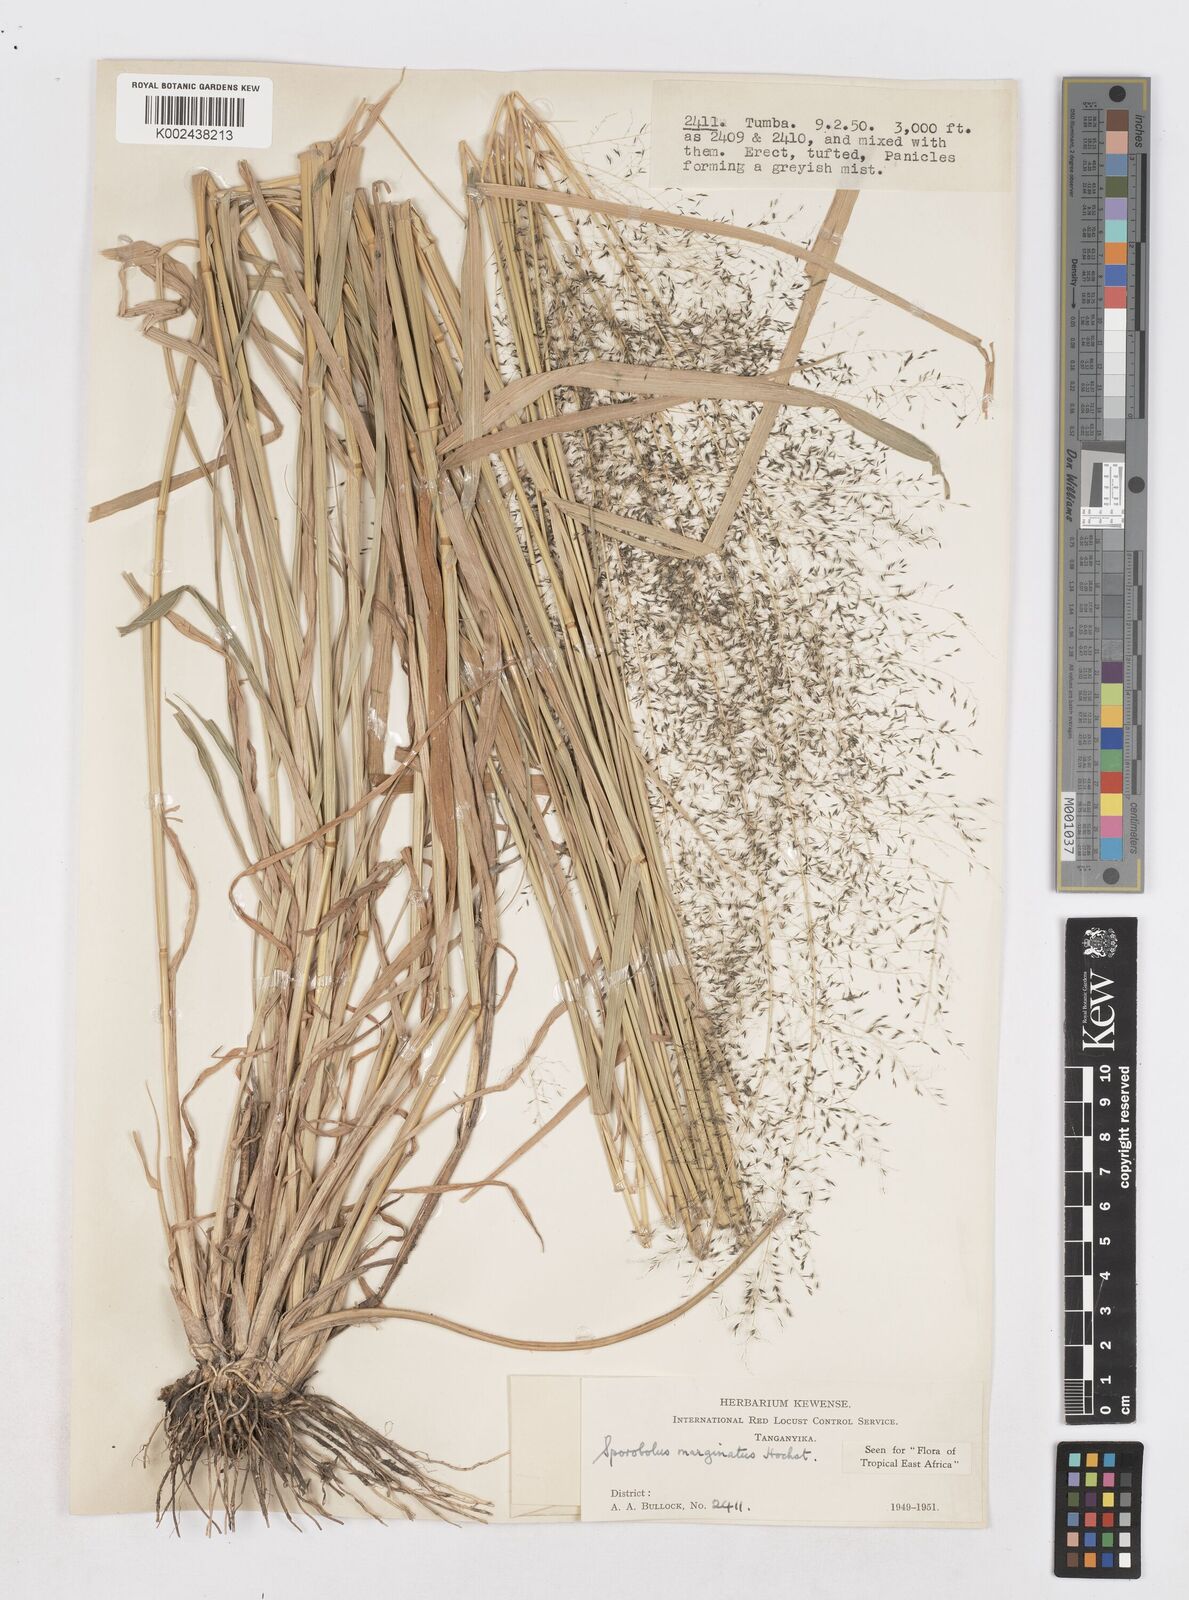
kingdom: Plantae
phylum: Tracheophyta
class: Liliopsida
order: Poales
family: Poaceae
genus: Sporobolus
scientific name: Sporobolus ioclados
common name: Pan dropseed
